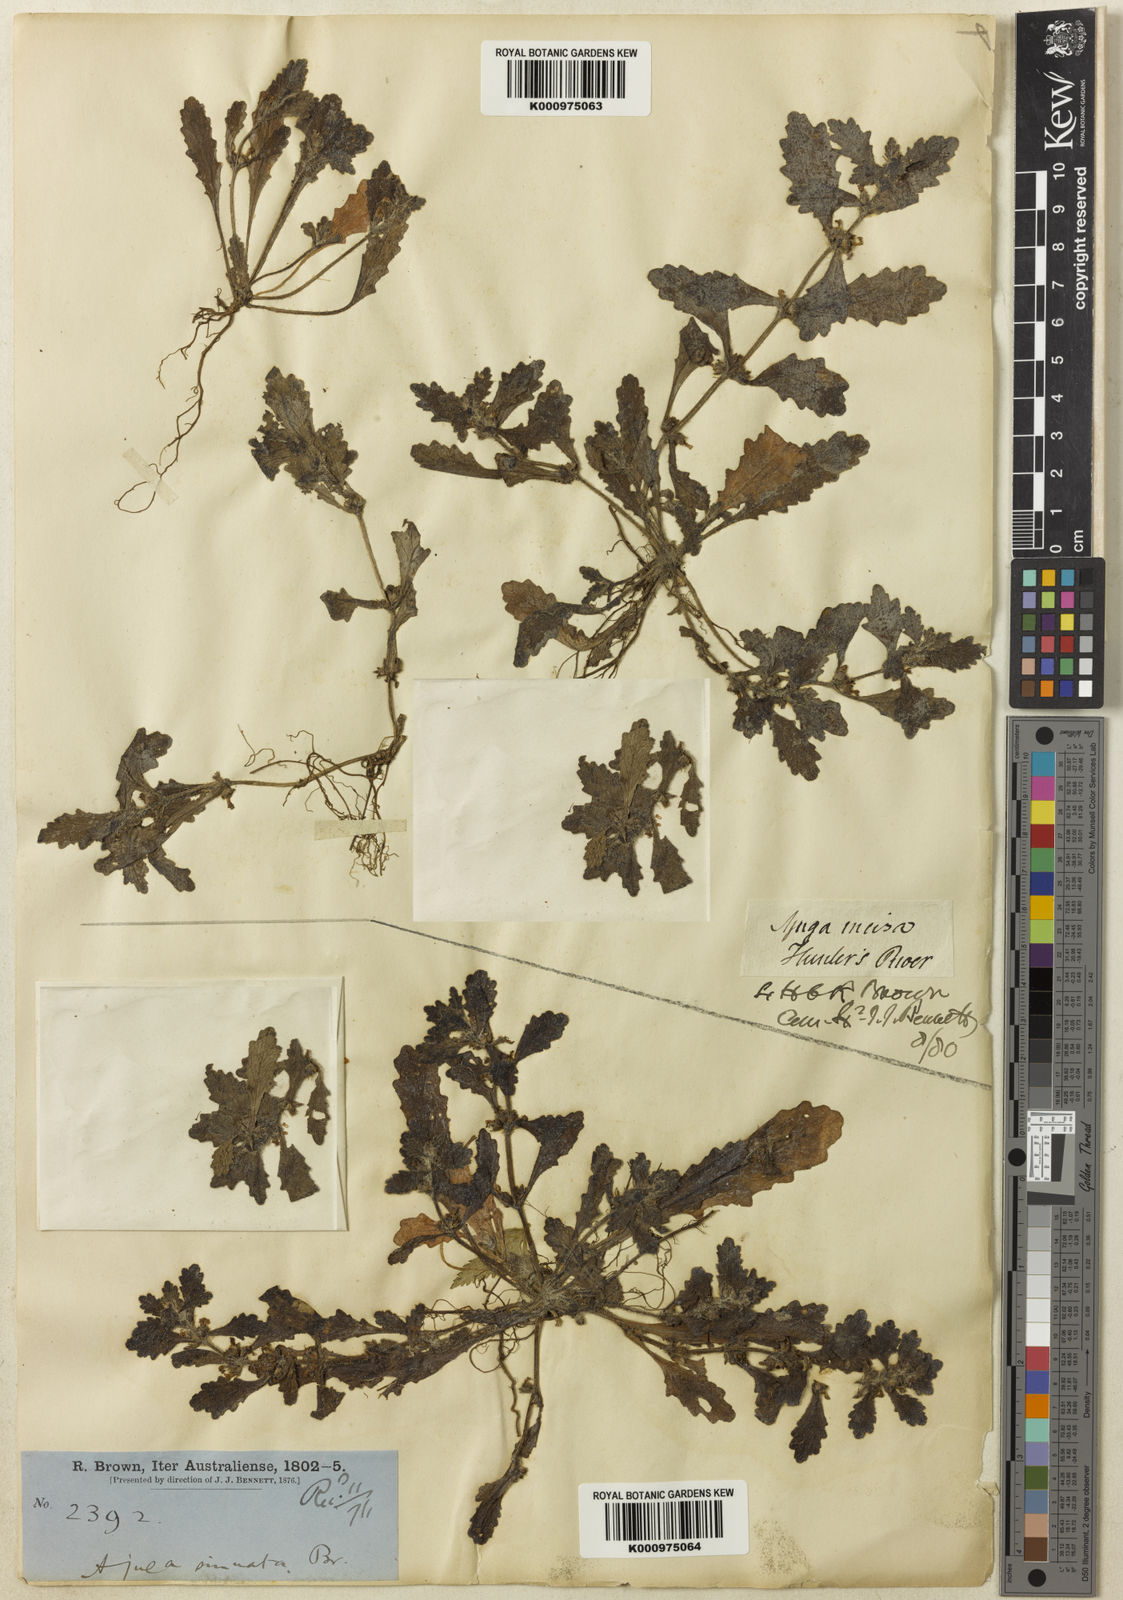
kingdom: Plantae
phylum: Tracheophyta
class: Magnoliopsida
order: Lamiales
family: Lamiaceae
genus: Ajuga
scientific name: Ajuga sinuata
